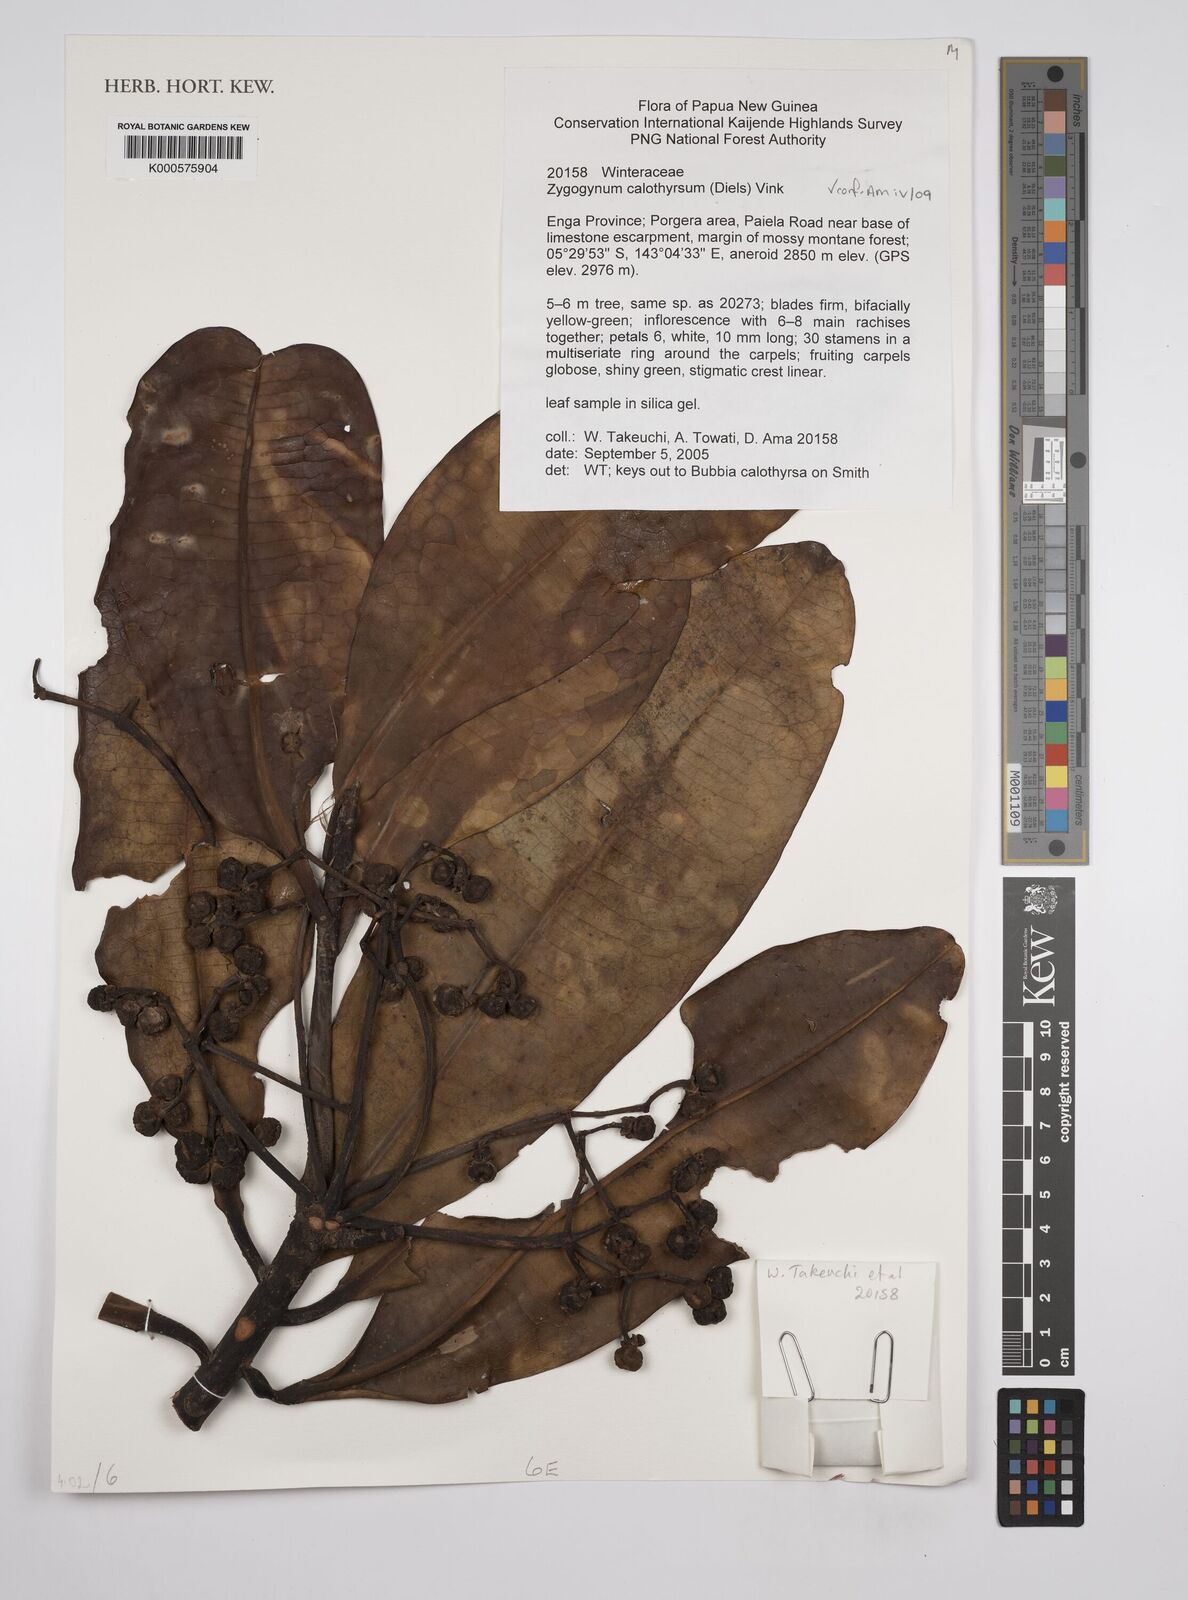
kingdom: Plantae
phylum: Tracheophyta
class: Magnoliopsida
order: Canellales
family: Winteraceae
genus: Zygogynum
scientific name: Zygogynum calothyrsum
